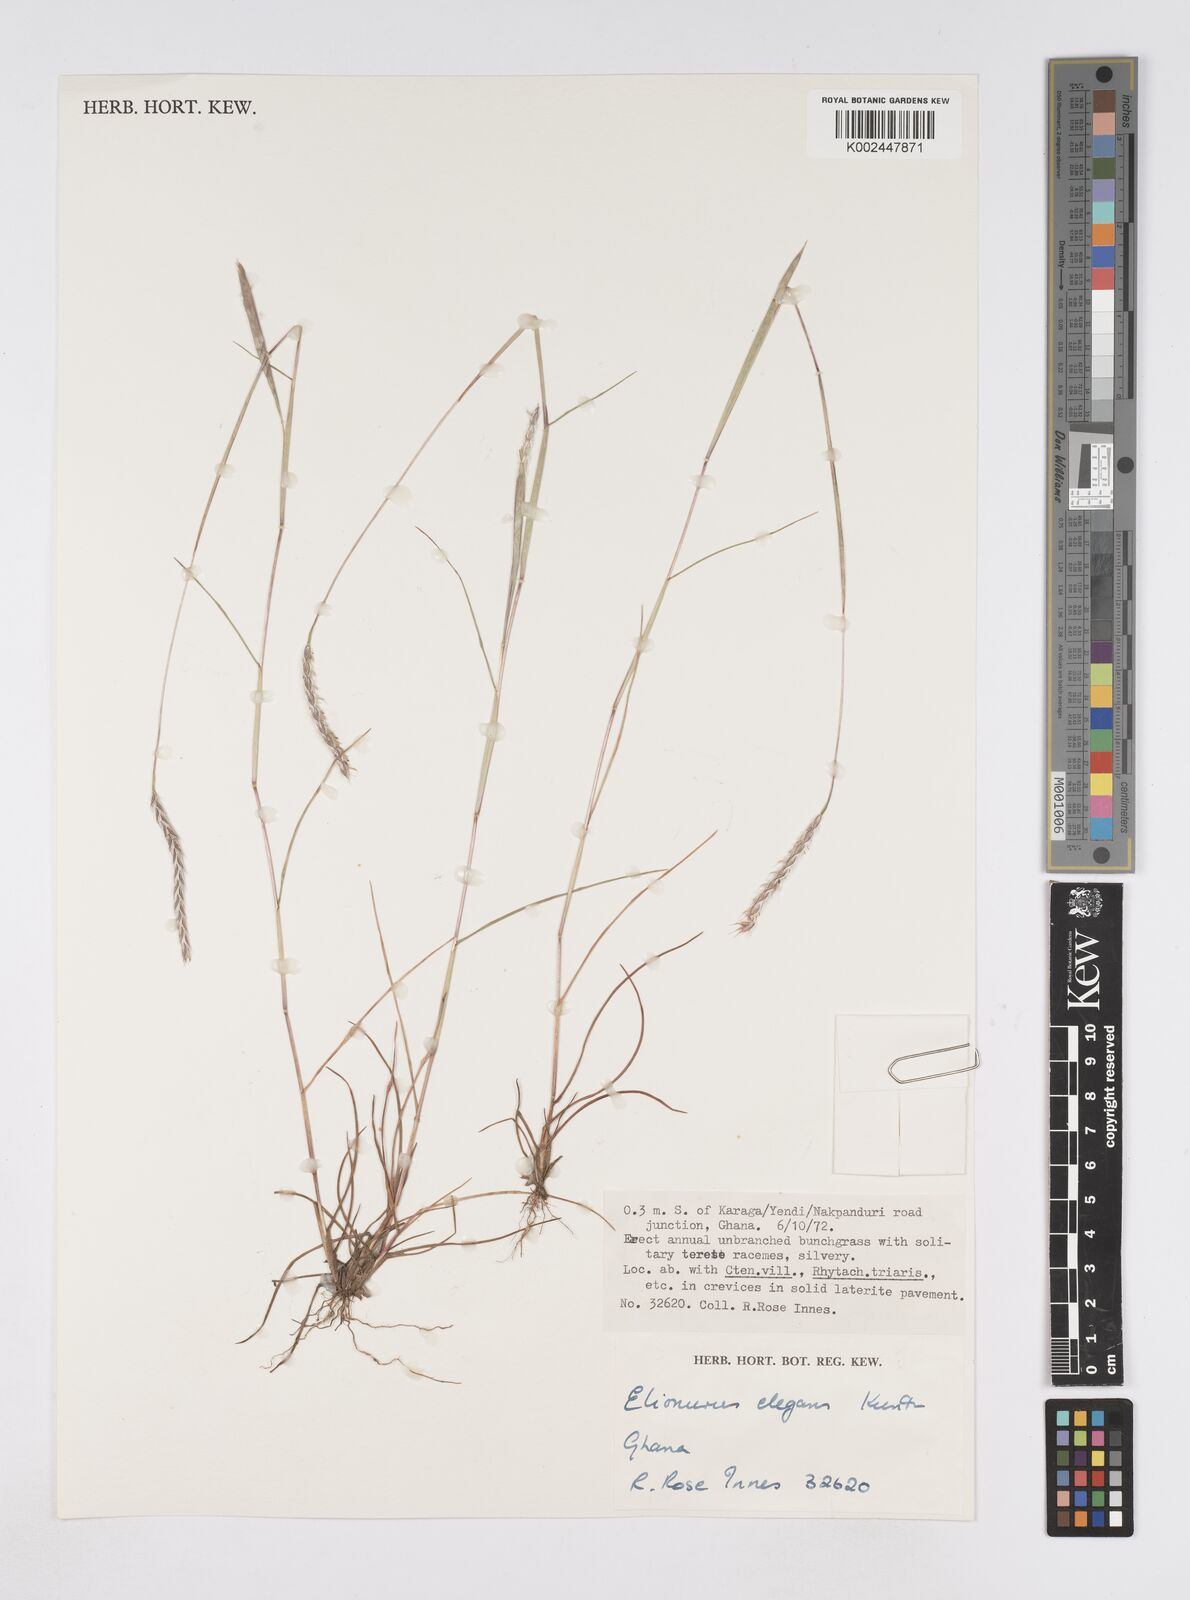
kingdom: Plantae
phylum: Tracheophyta
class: Liliopsida
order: Poales
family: Poaceae
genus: Elionurus
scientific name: Elionurus elegans
